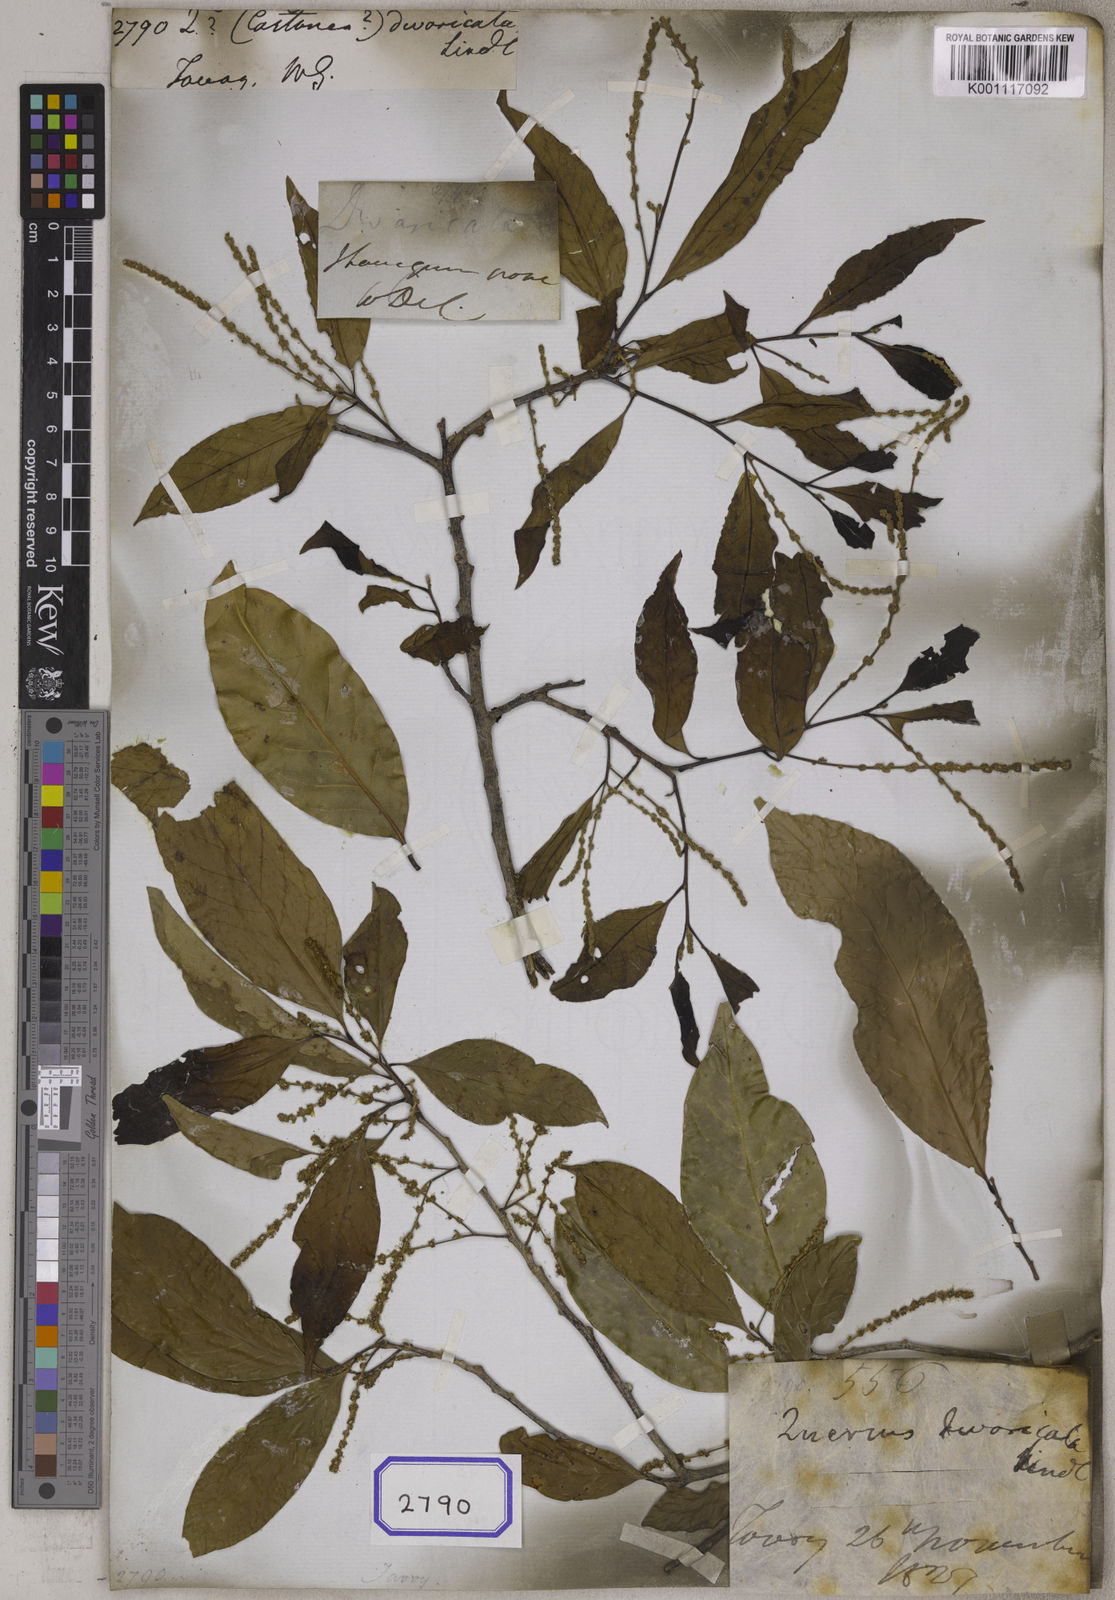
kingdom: Plantae
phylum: Tracheophyta
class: Magnoliopsida
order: Fagales
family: Fagaceae
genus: Quercus
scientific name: Quercus
